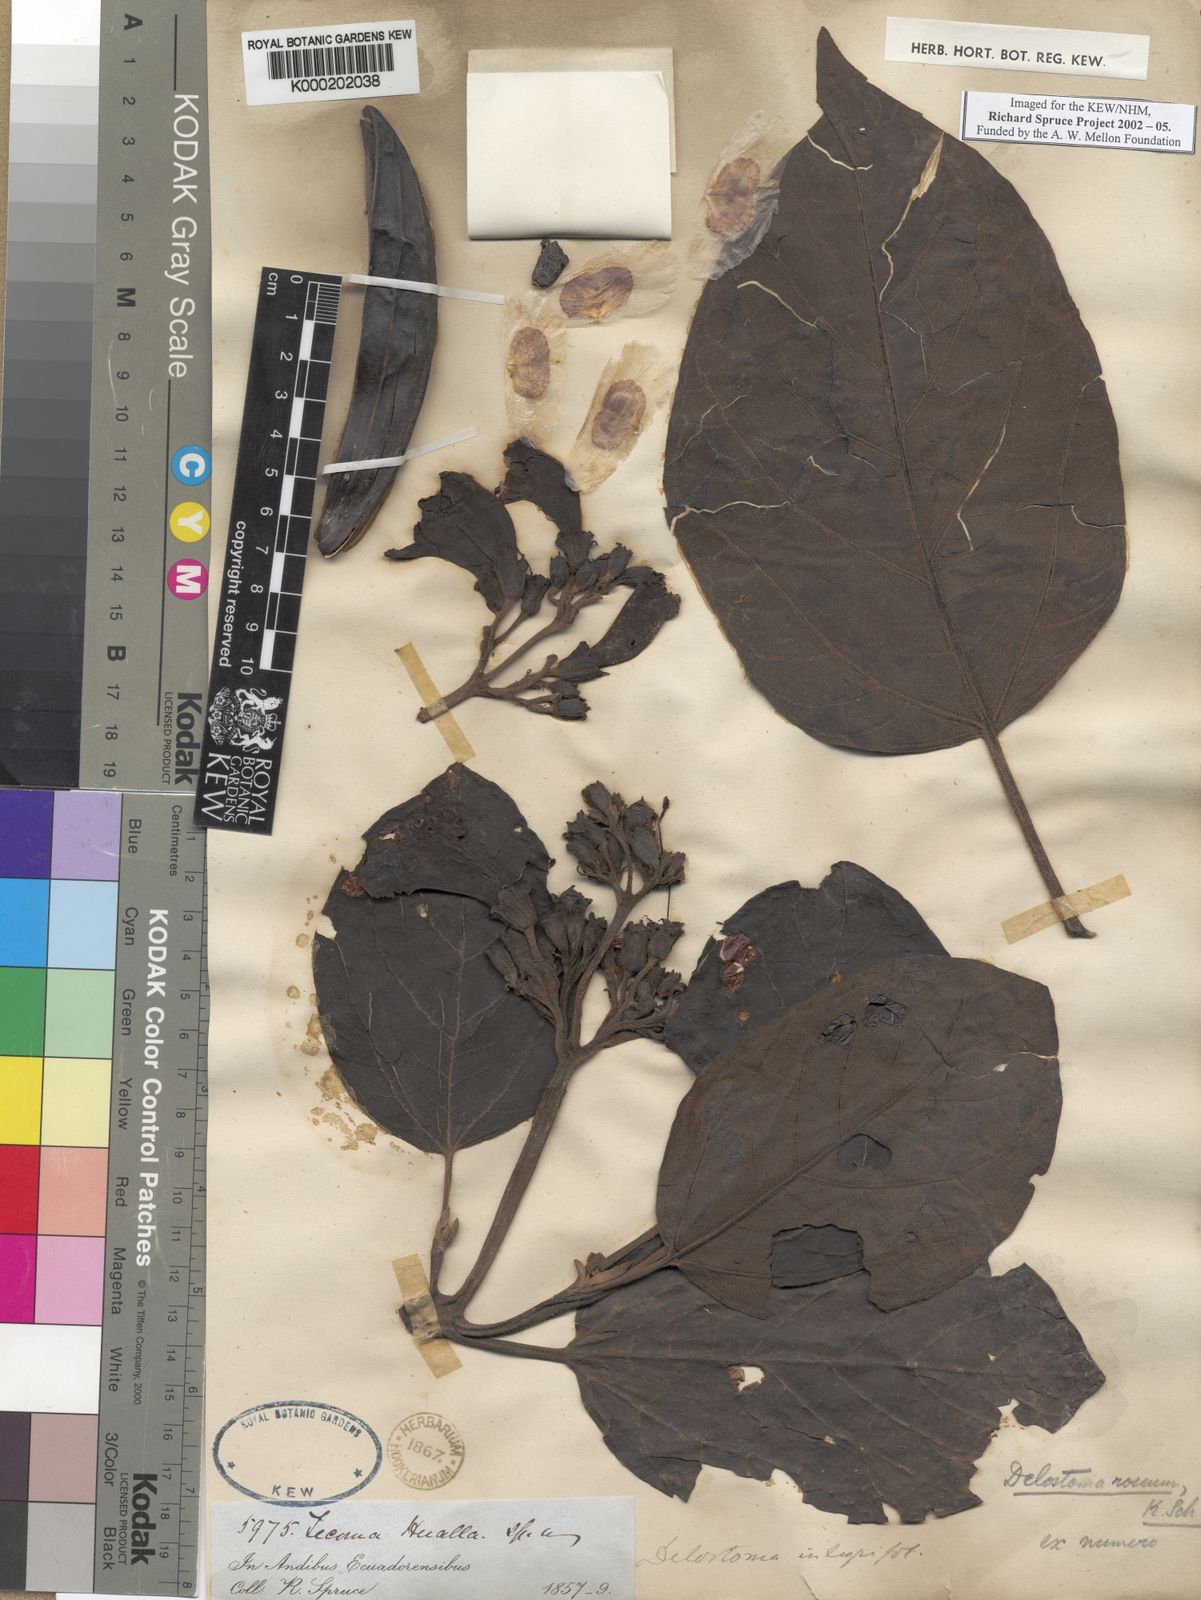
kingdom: Plantae
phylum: Tracheophyta
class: Magnoliopsida
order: Lamiales
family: Bignoniaceae
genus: Handroanthus
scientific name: Handroanthus billbergii
